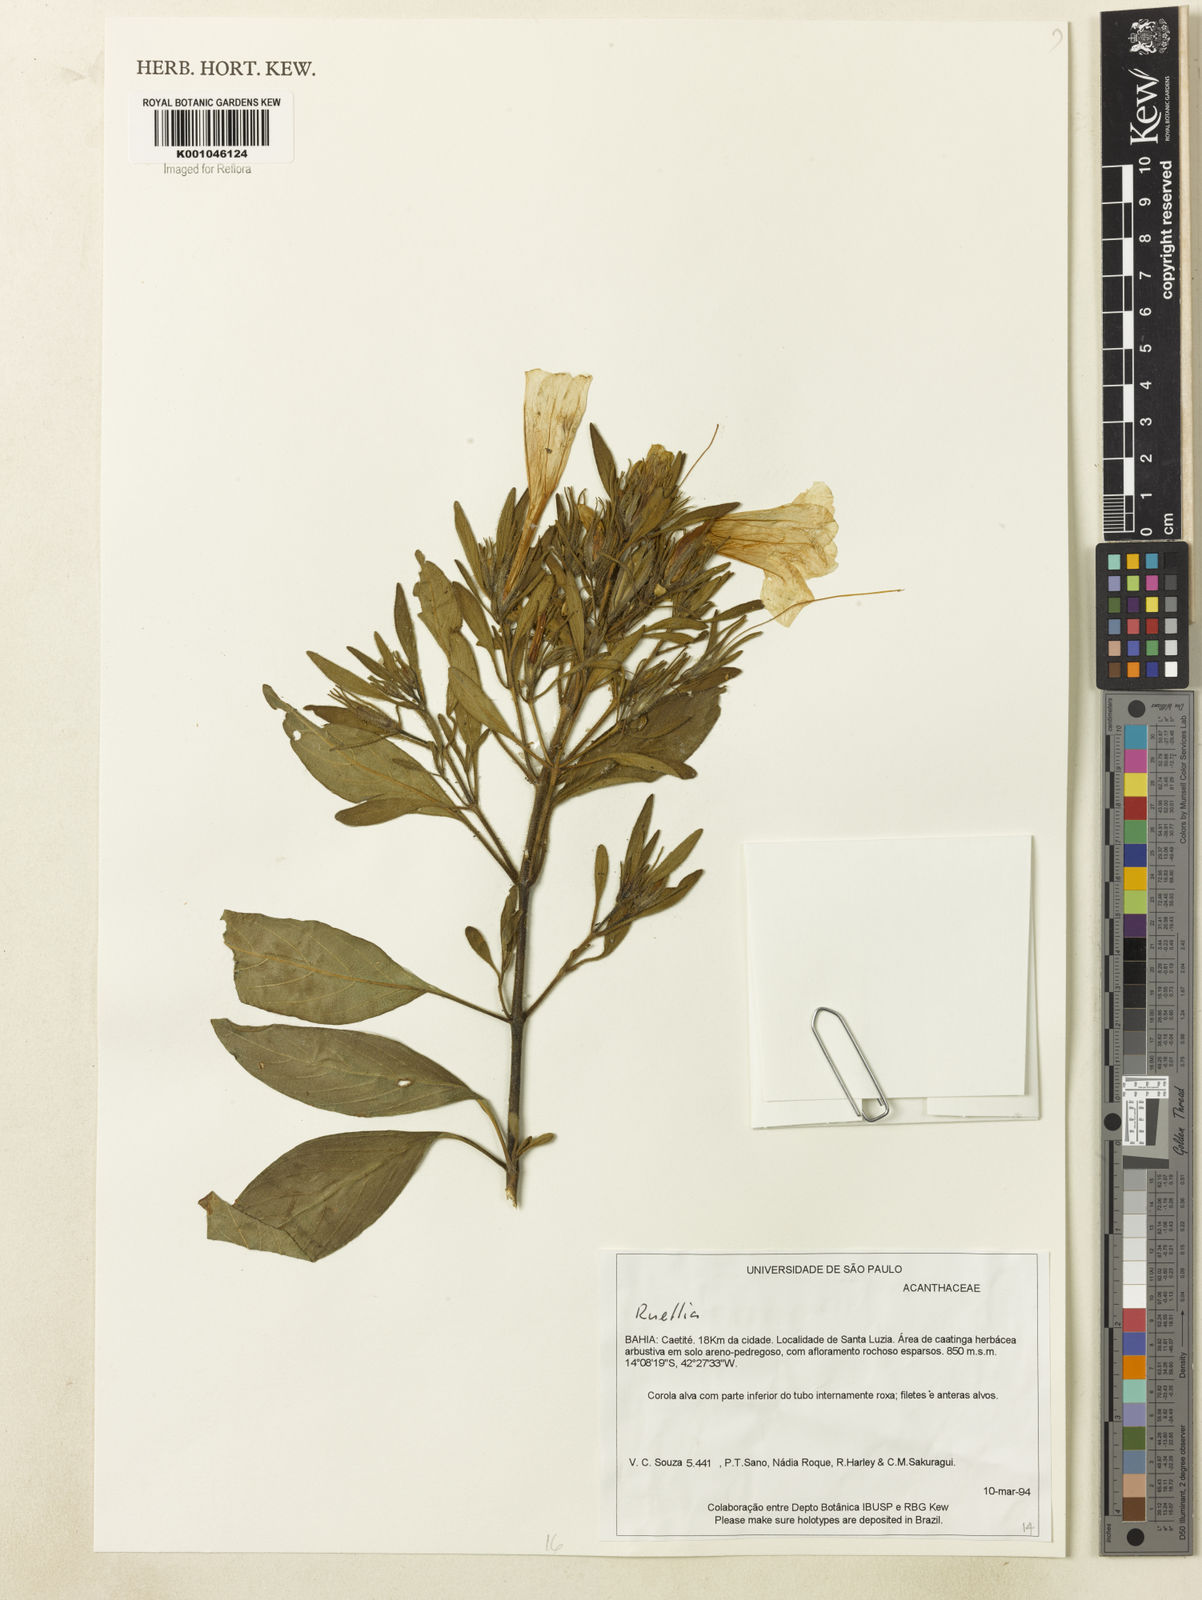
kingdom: Plantae
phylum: Tracheophyta
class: Magnoliopsida
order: Lamiales
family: Acanthaceae
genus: Ruellia
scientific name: Ruellia
